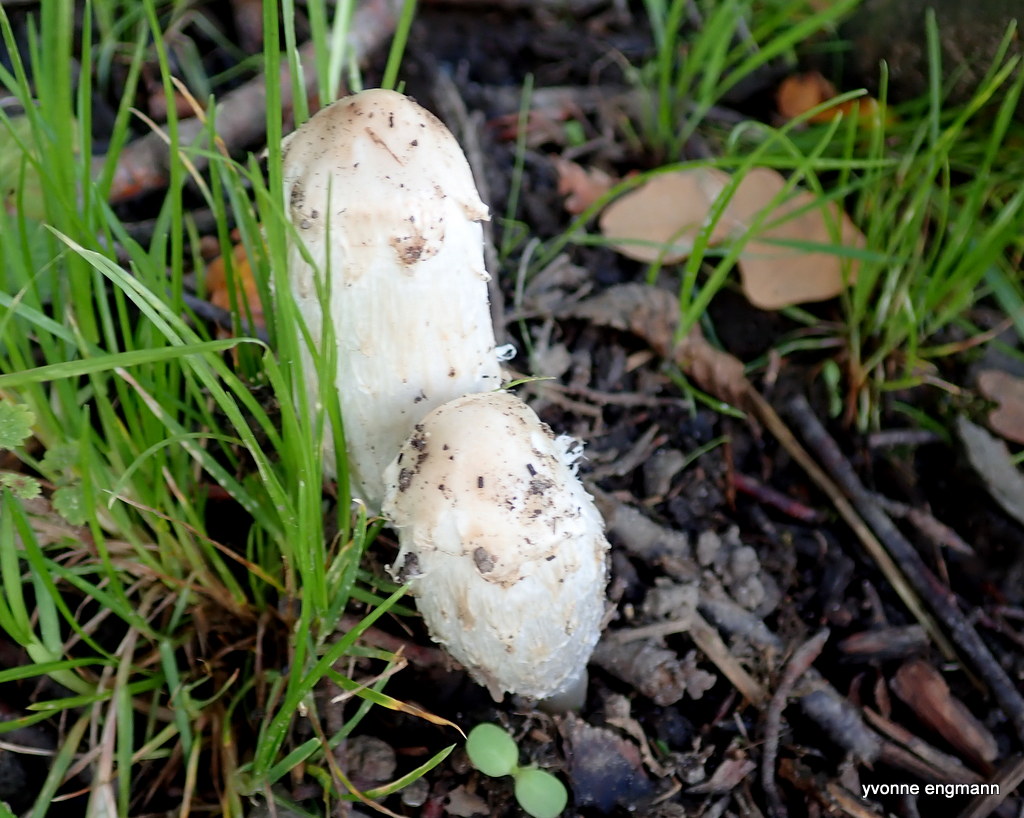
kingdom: Fungi
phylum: Basidiomycota
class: Agaricomycetes
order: Agaricales
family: Agaricaceae
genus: Coprinus
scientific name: Coprinus comatus
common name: stor parykhat
